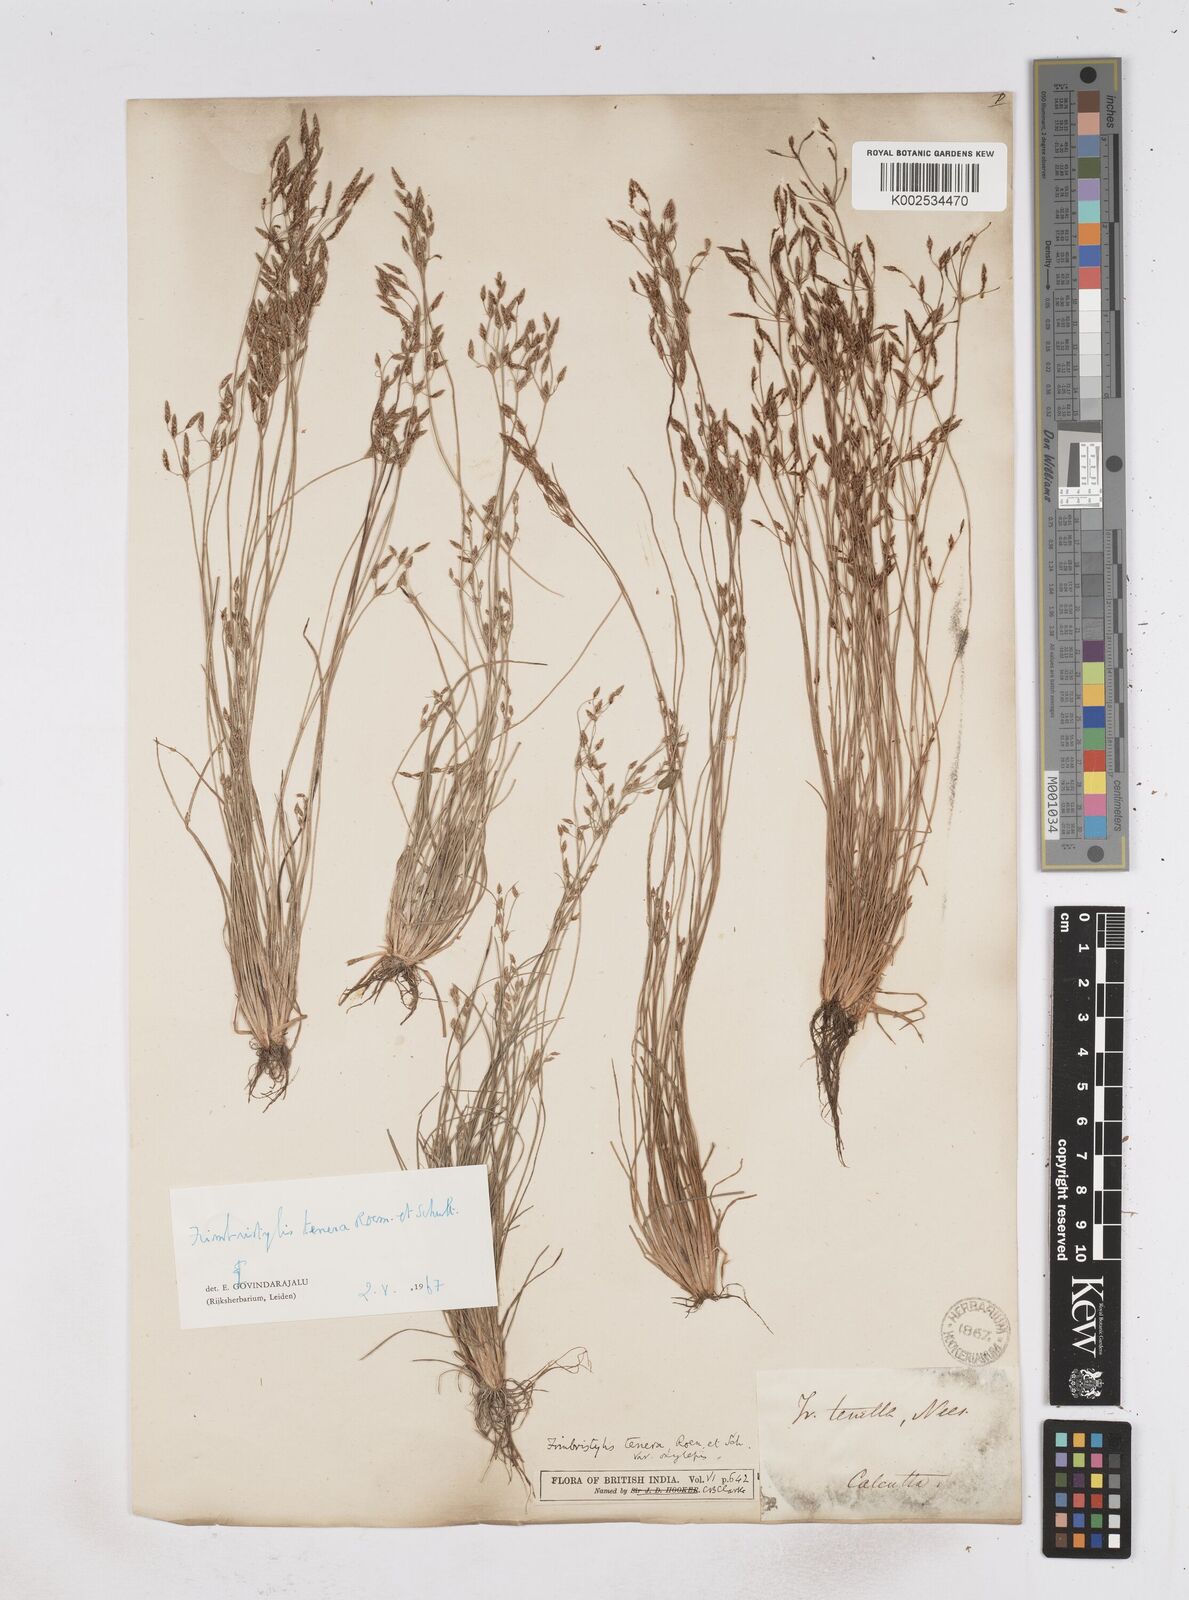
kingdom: Plantae
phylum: Tracheophyta
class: Liliopsida
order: Poales
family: Cyperaceae
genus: Fimbristylis
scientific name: Fimbristylis tenera
